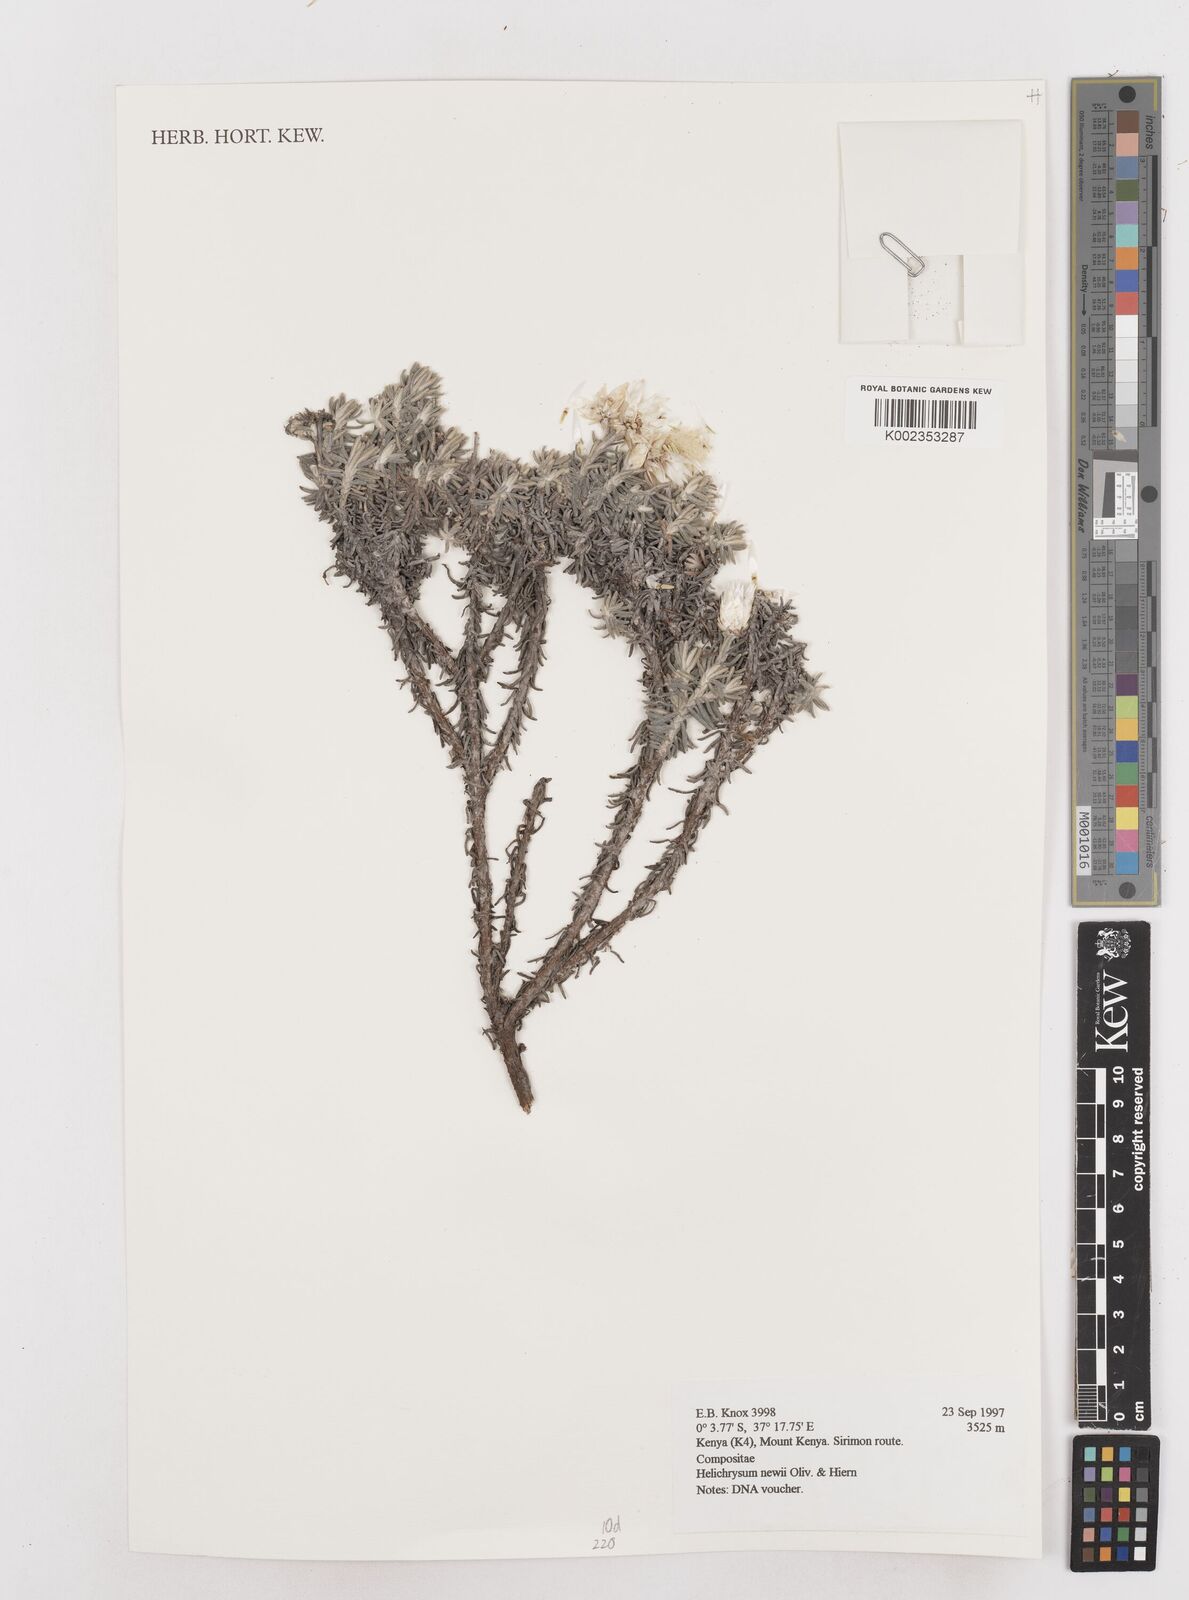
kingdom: Plantae
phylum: Tracheophyta
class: Magnoliopsida
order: Asterales
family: Asteraceae
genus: Helichrysum
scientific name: Helichrysum newii
